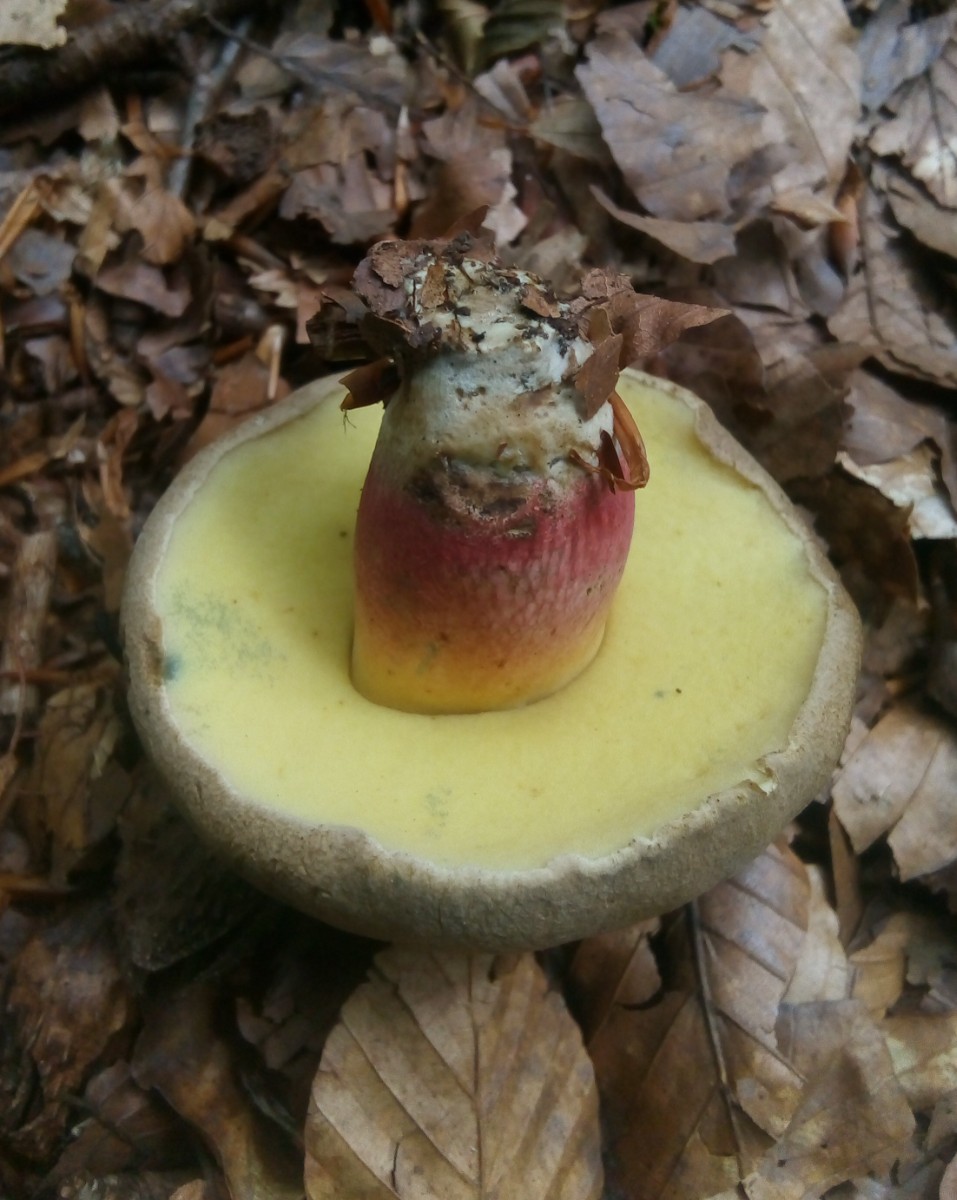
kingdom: Fungi
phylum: Basidiomycota
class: Agaricomycetes
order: Boletales
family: Boletaceae
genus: Caloboletus
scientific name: Caloboletus calopus
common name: skønfodet rørhat
